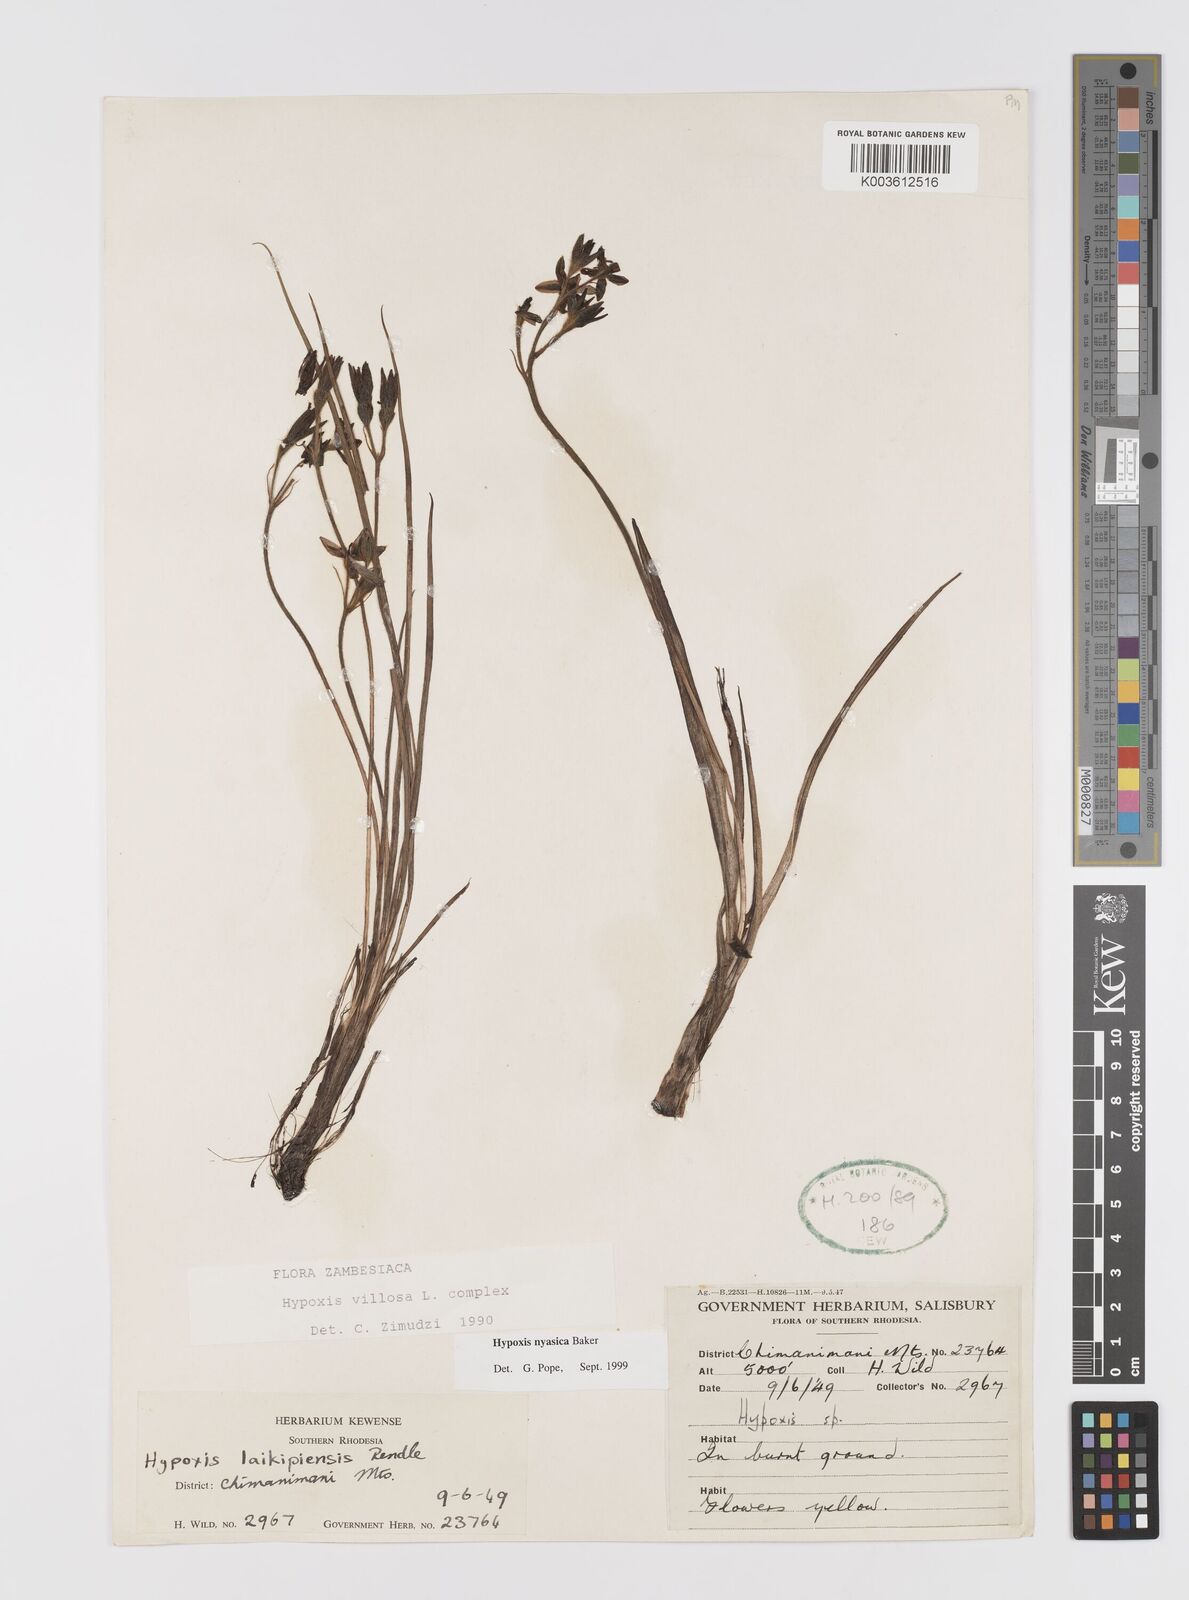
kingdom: Plantae
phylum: Tracheophyta
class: Liliopsida
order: Asparagales
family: Hypoxidaceae
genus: Hypoxis
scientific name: Hypoxis nyasica
